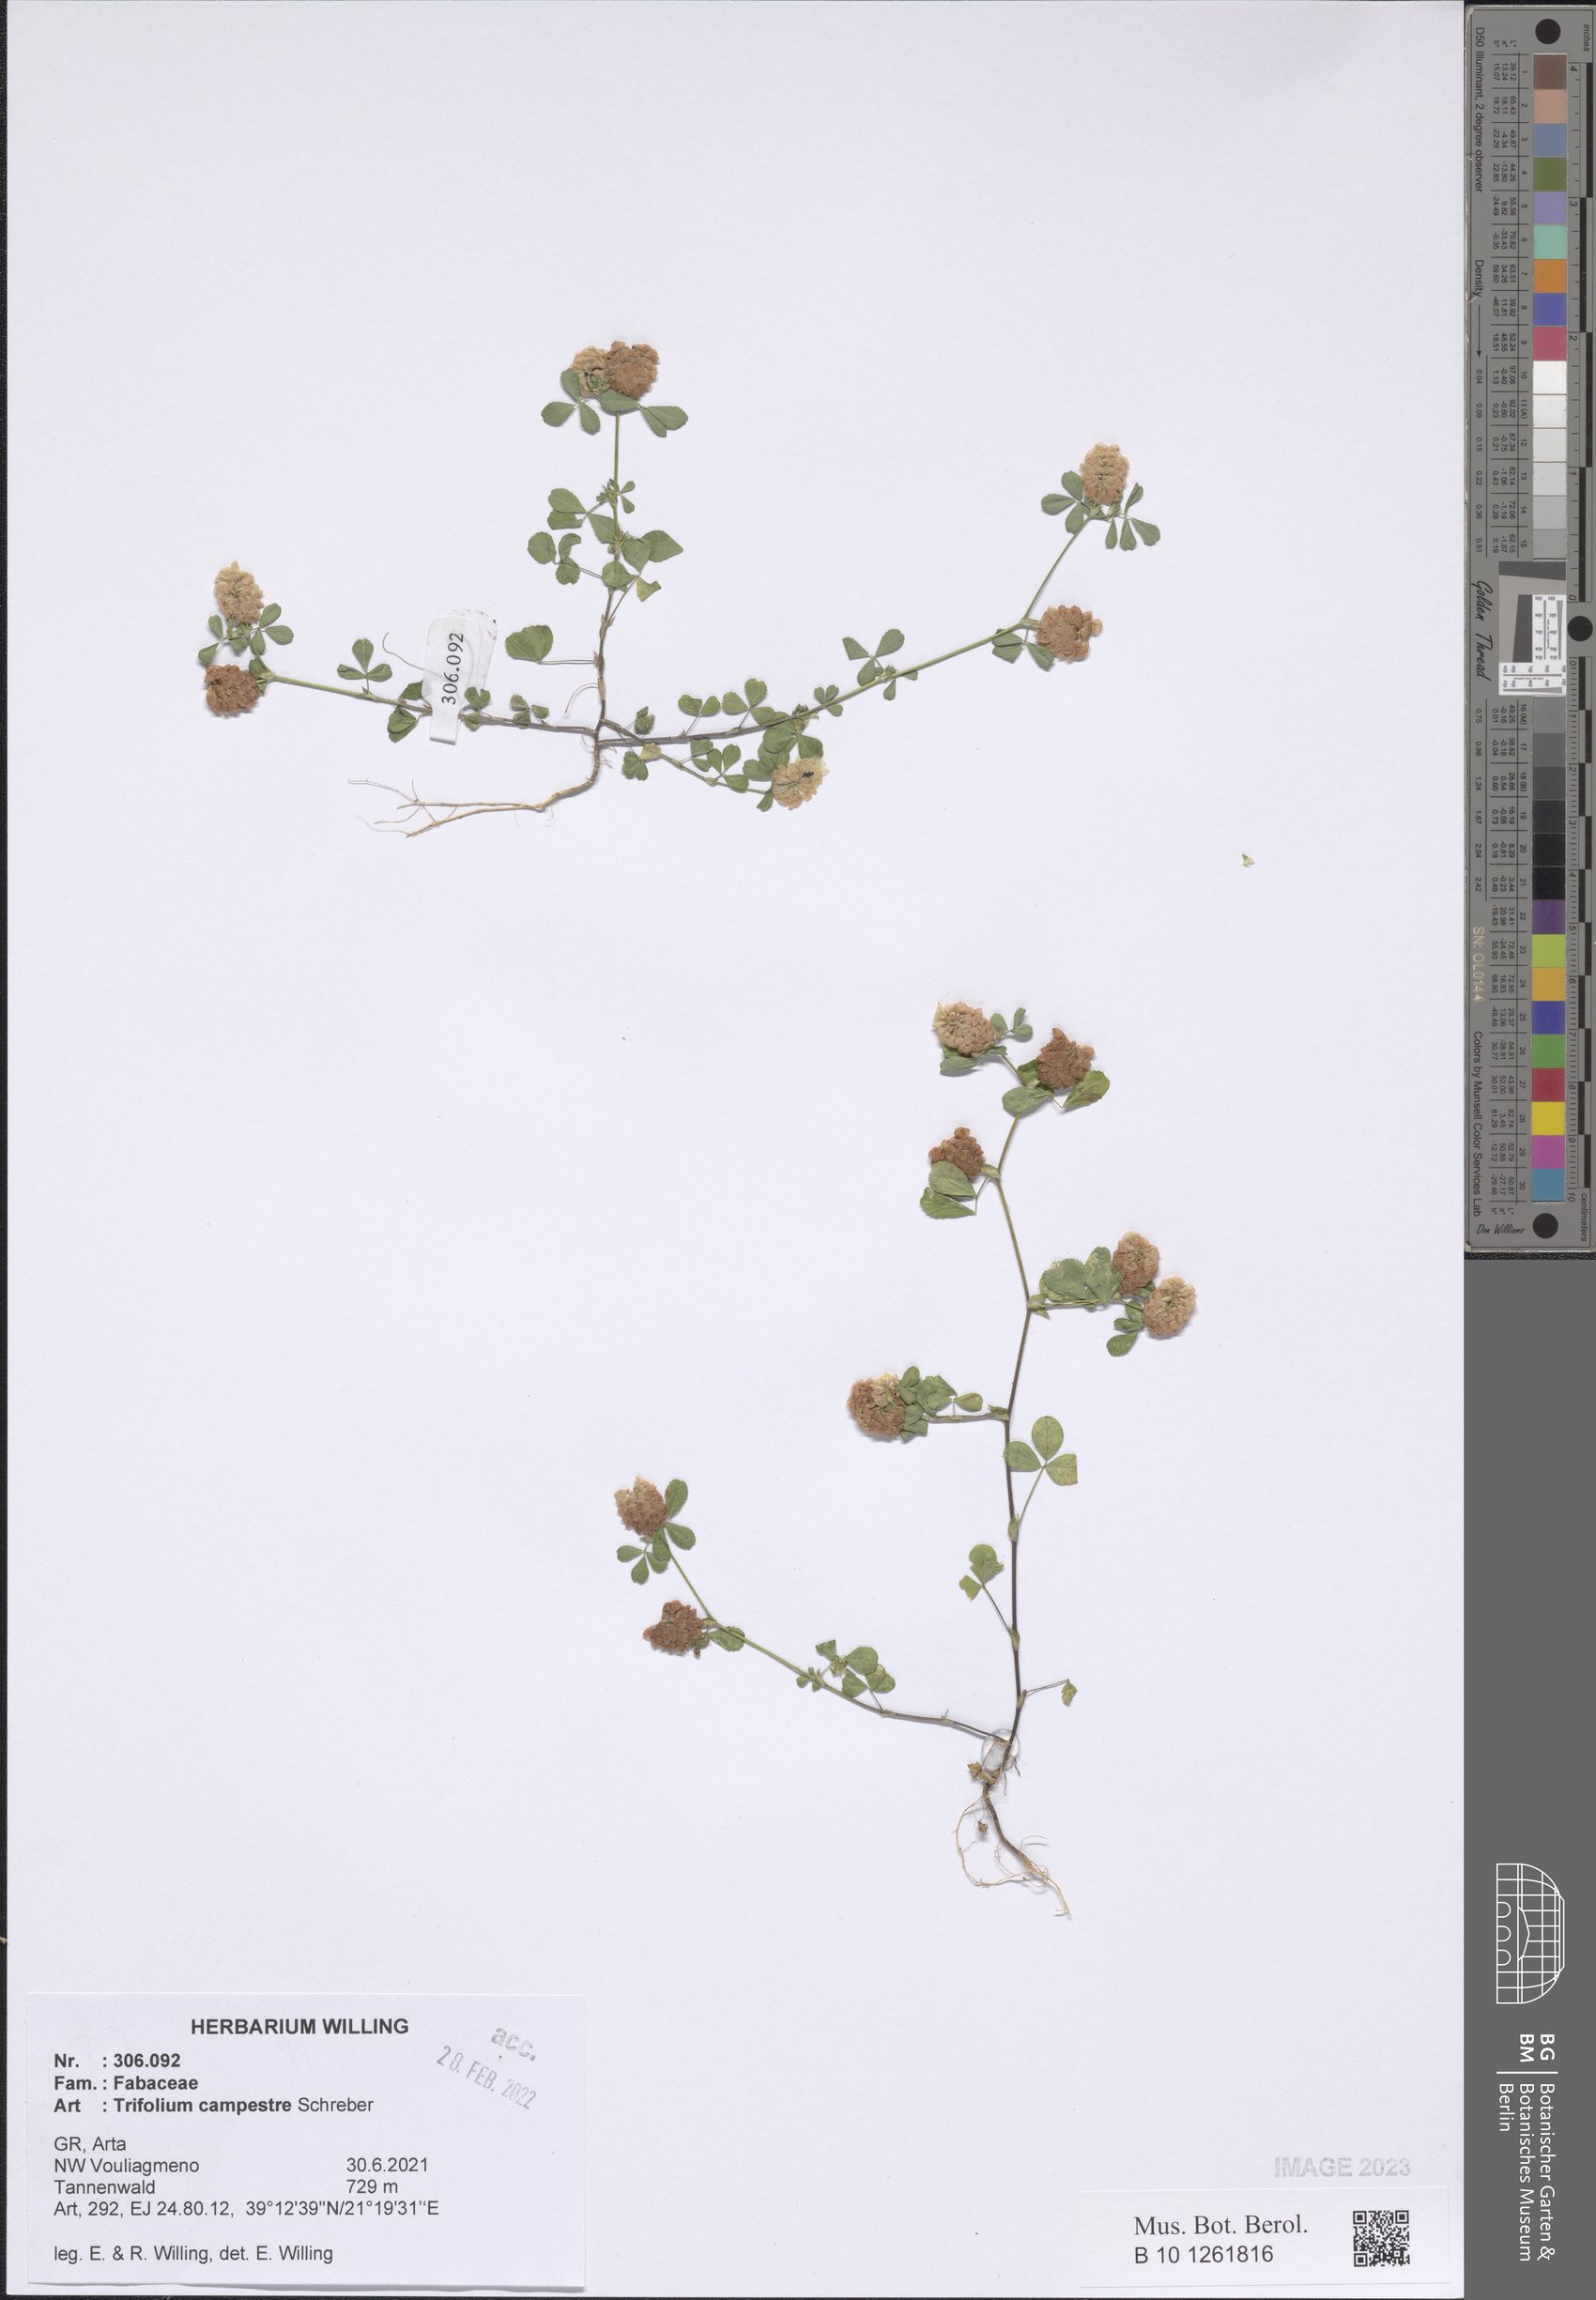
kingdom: Plantae
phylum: Tracheophyta
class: Magnoliopsida
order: Fabales
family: Fabaceae
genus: Trifolium
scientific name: Trifolium campestre
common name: Field clover
